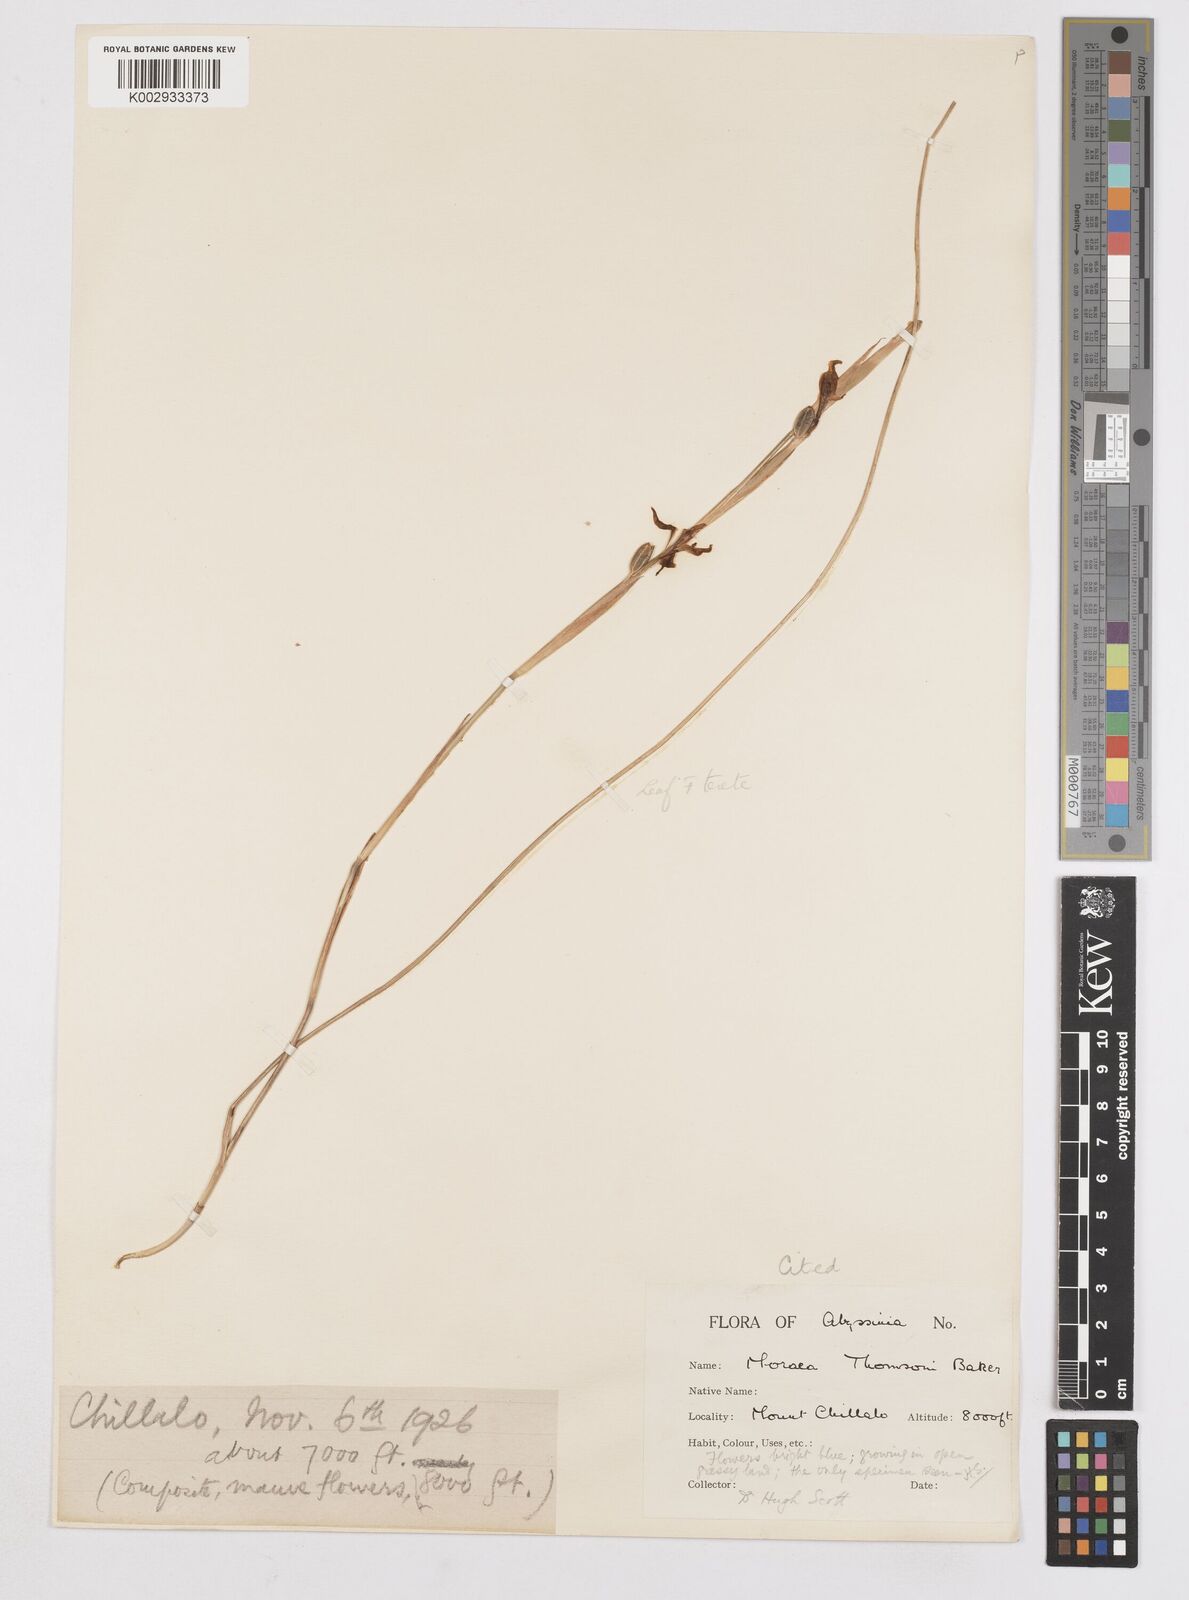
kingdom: Plantae
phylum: Tracheophyta
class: Liliopsida
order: Asparagales
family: Iridaceae
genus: Moraea
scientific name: Moraea thomsonii
